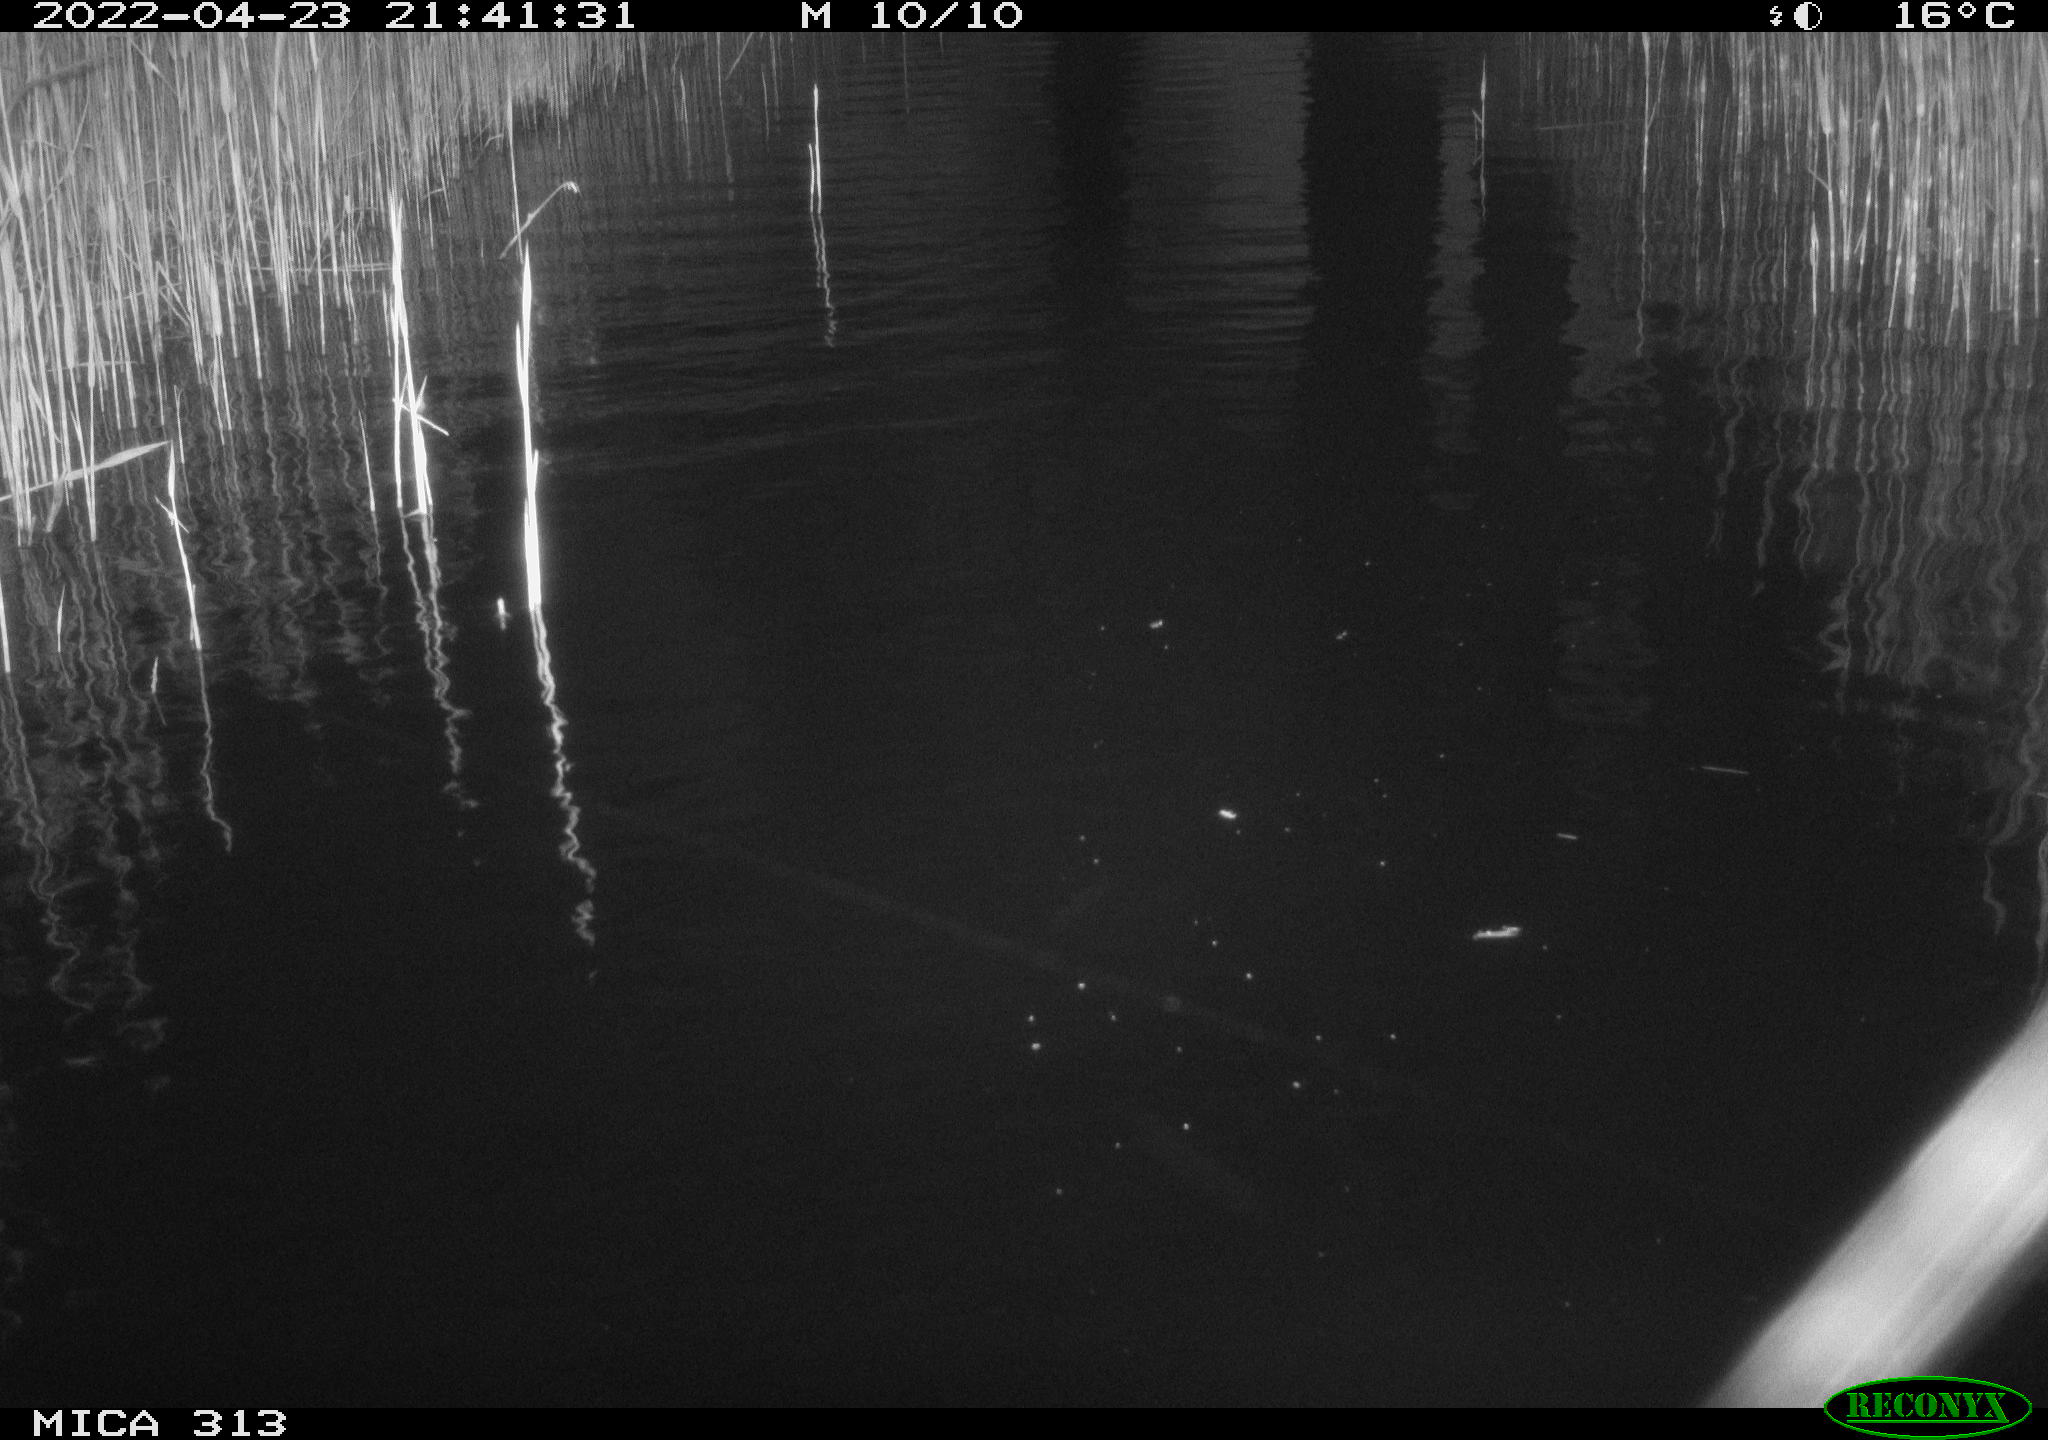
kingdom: Animalia
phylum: Chordata
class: Aves
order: Anseriformes
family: Anatidae
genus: Anas
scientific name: Anas platyrhynchos
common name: Mallard
